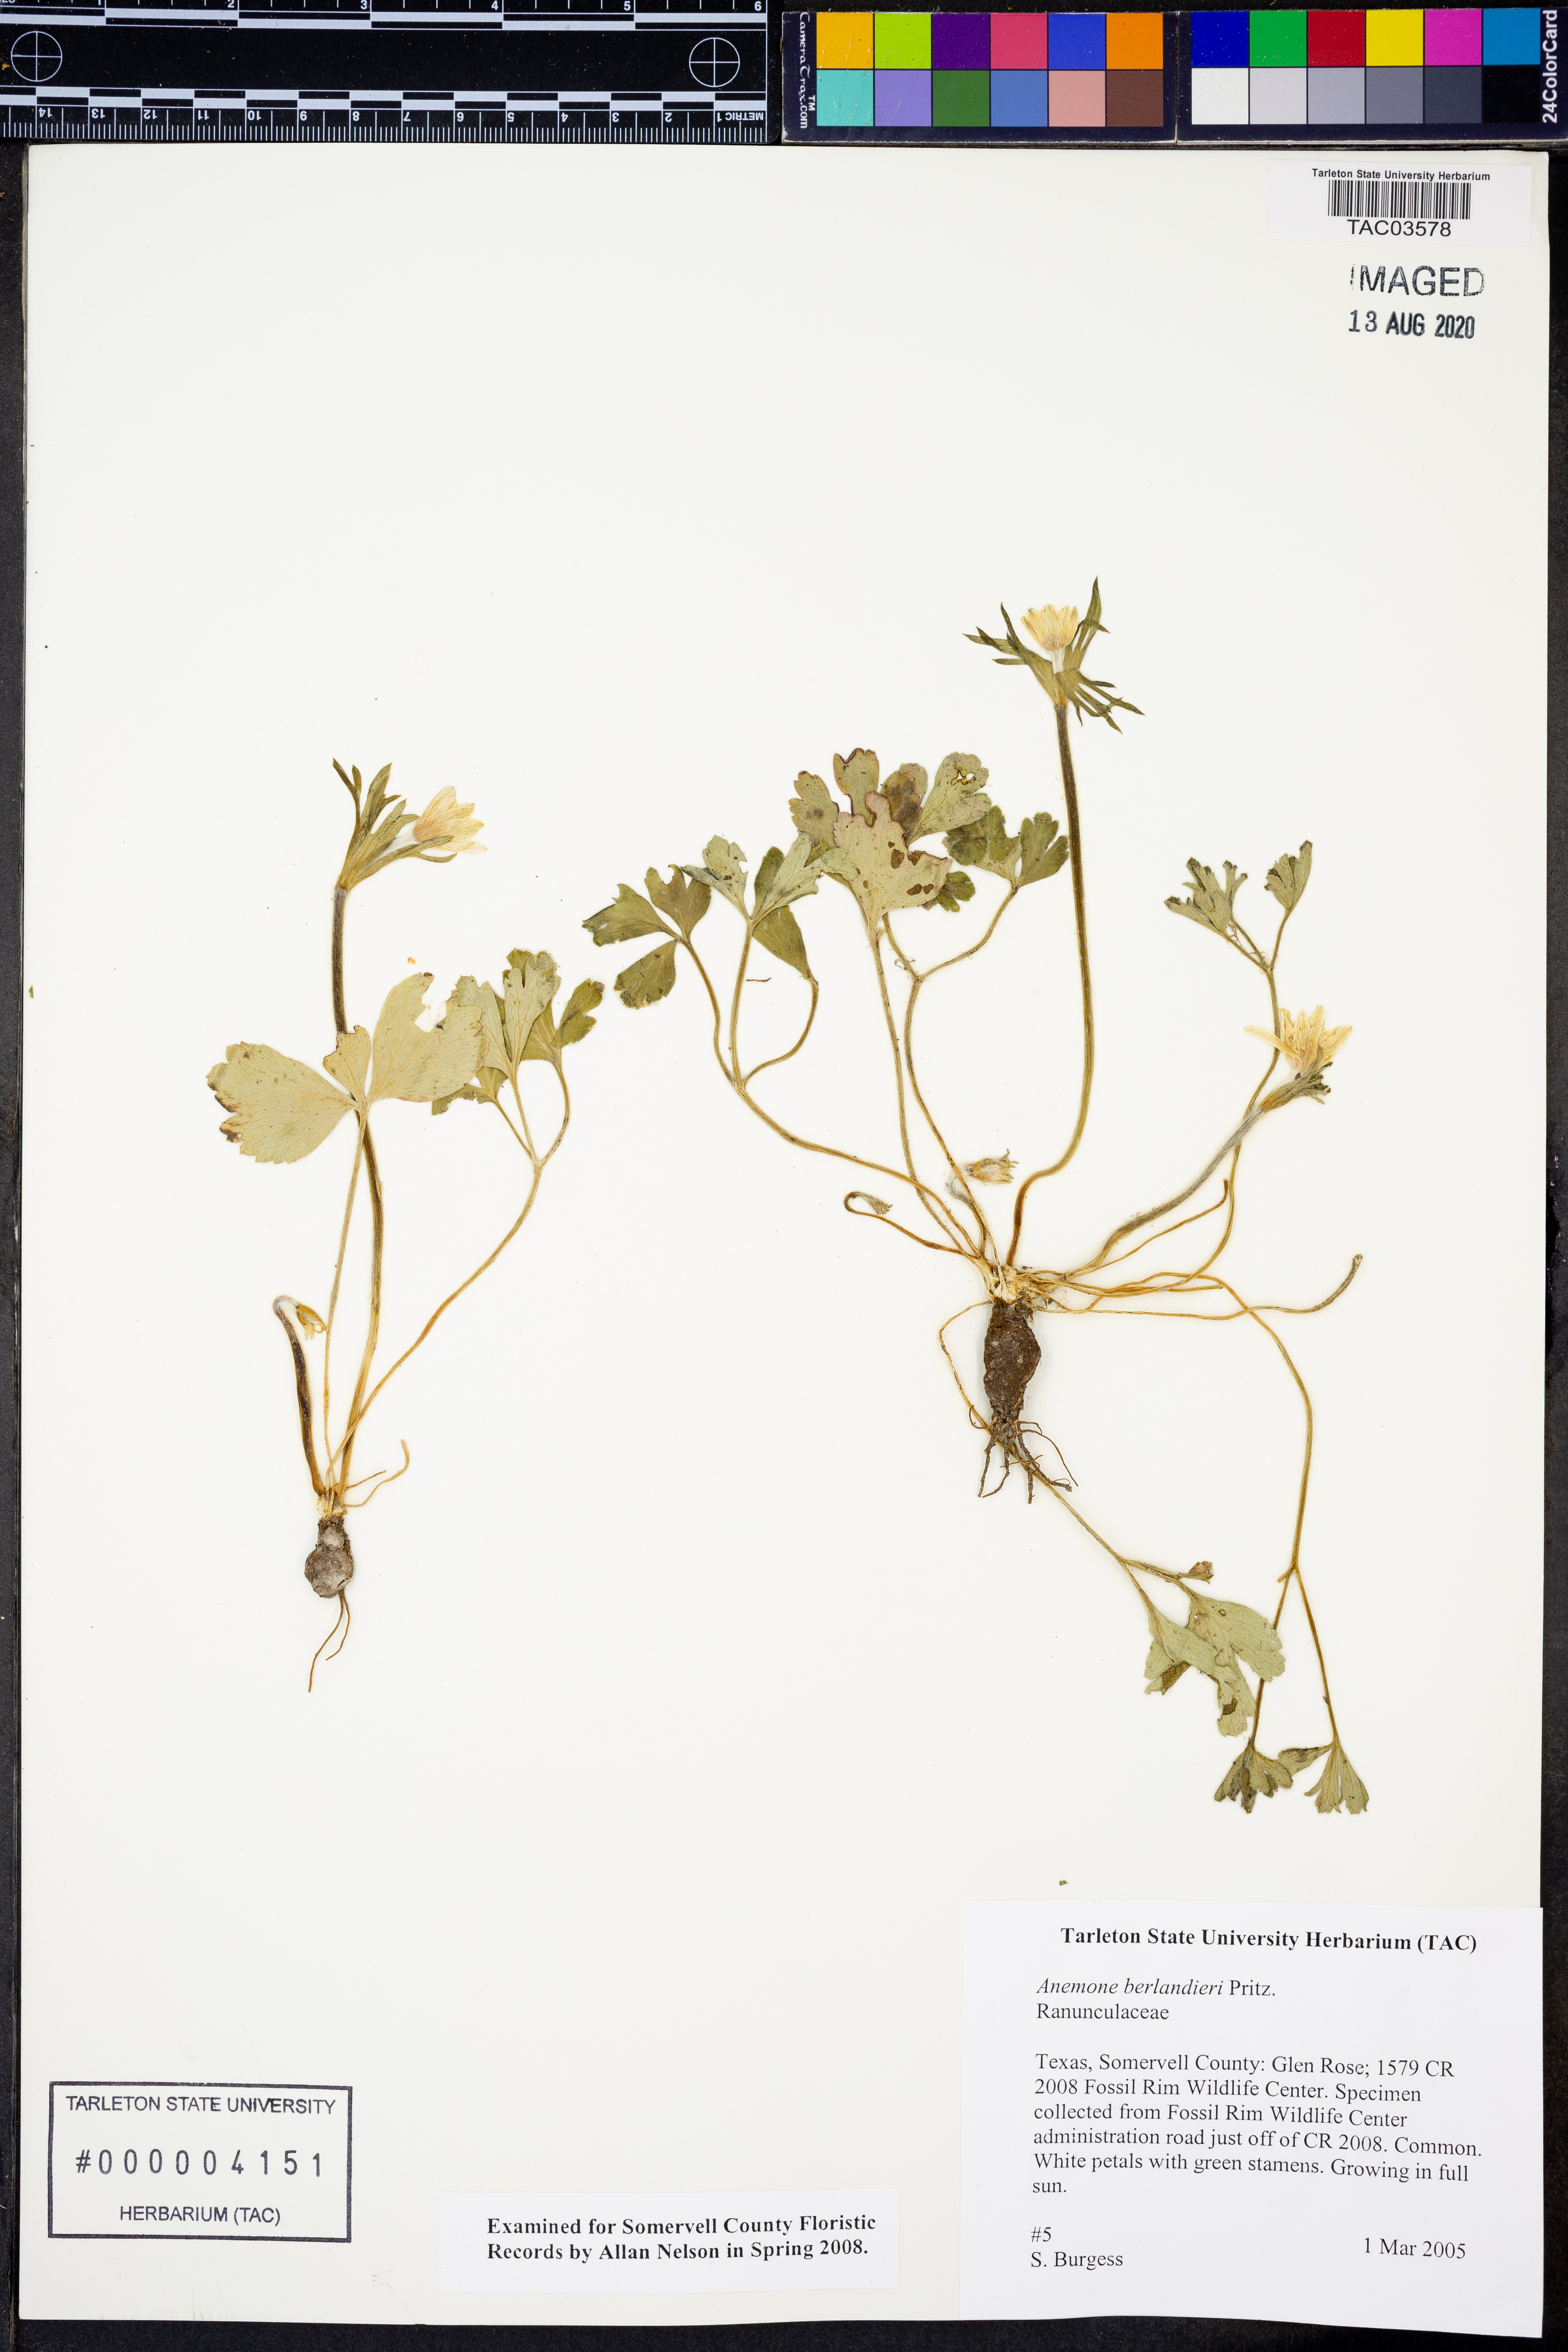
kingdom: Plantae
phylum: Tracheophyta
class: Magnoliopsida
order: Ranunculales
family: Ranunculaceae
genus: Anemone
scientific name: Anemone berlandieri
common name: Ten-petal anemone
